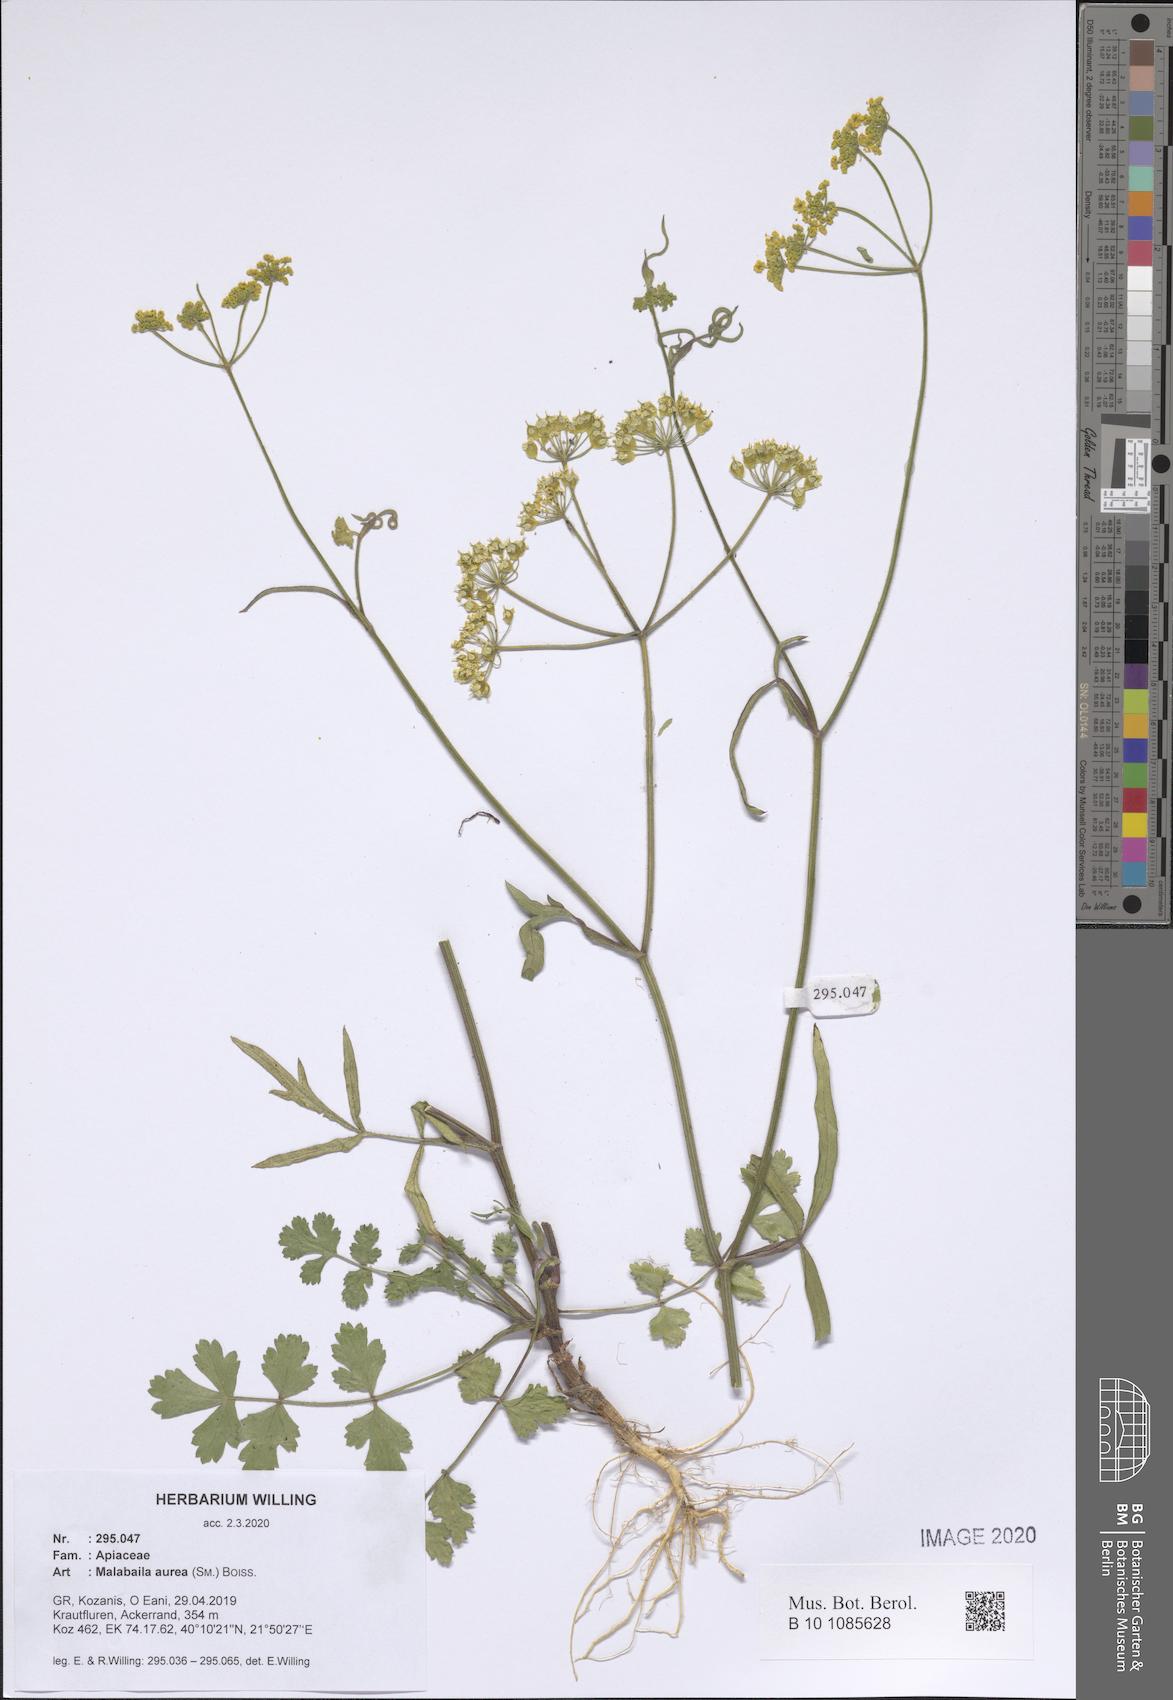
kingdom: Plantae
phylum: Tracheophyta
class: Magnoliopsida
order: Apiales
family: Apiaceae
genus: Leiotulus
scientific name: Leiotulus aureus
